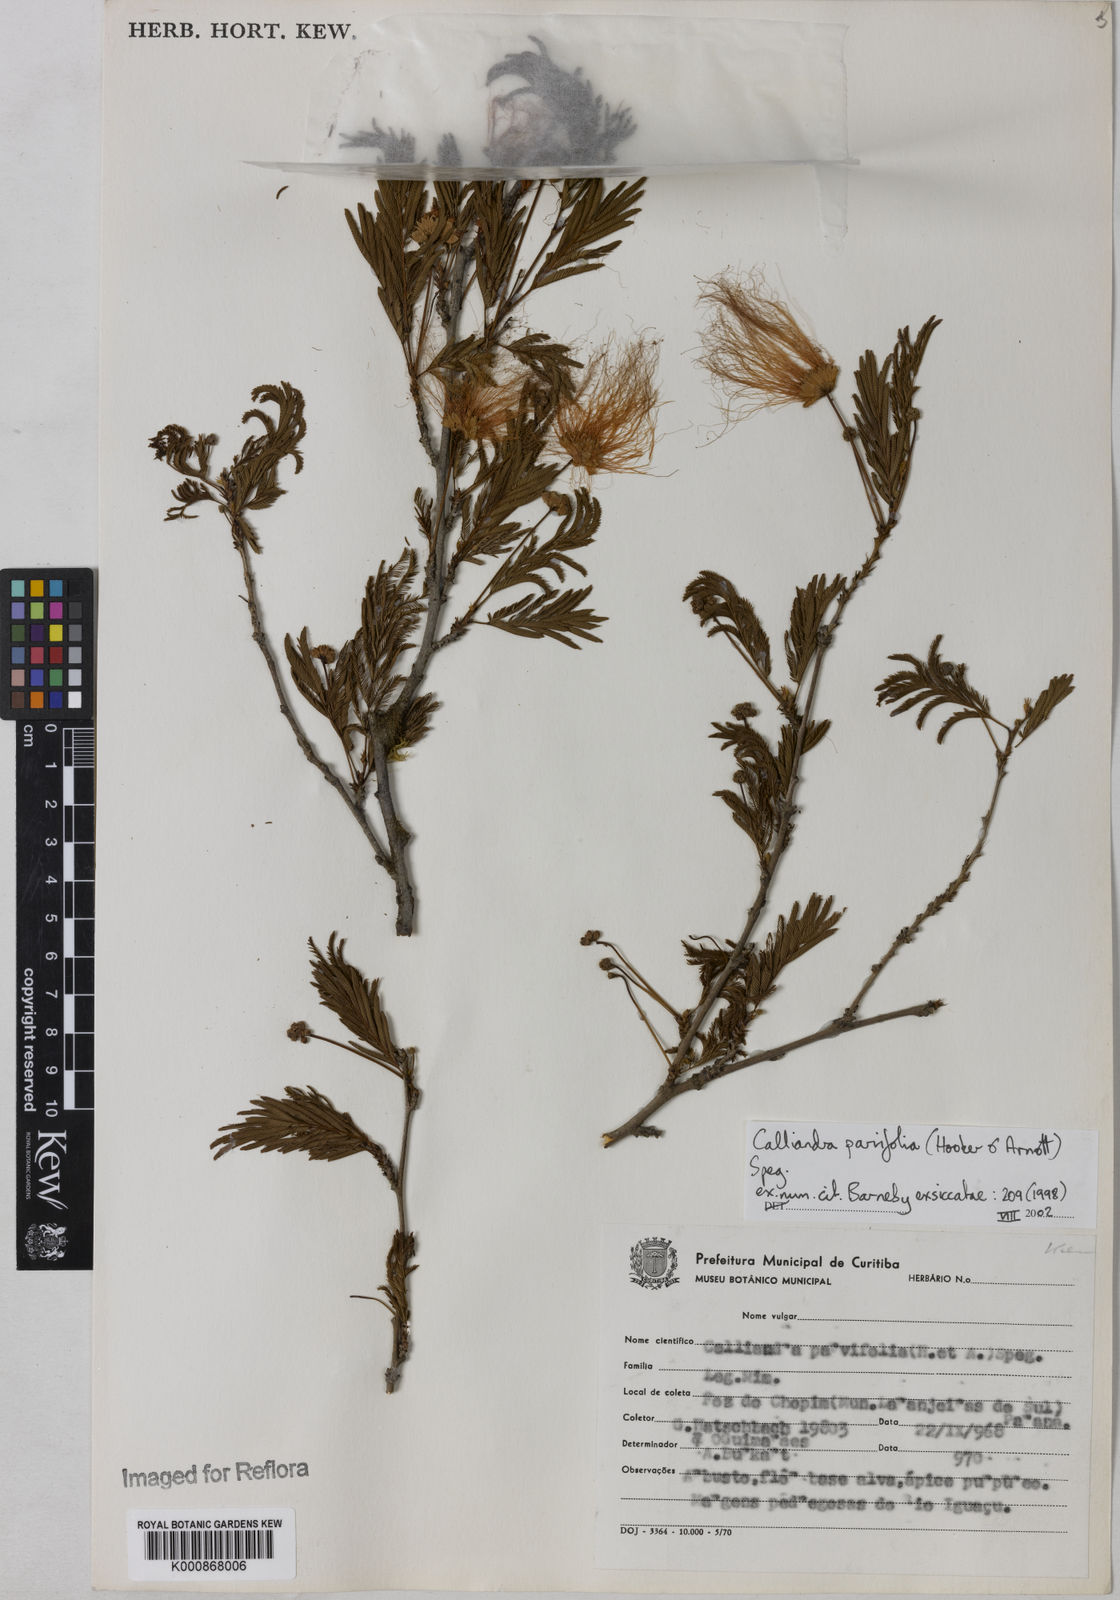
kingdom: Plantae
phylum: Tracheophyta
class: Magnoliopsida
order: Fabales
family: Fabaceae
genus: Calliandra
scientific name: Calliandra parvifolia
